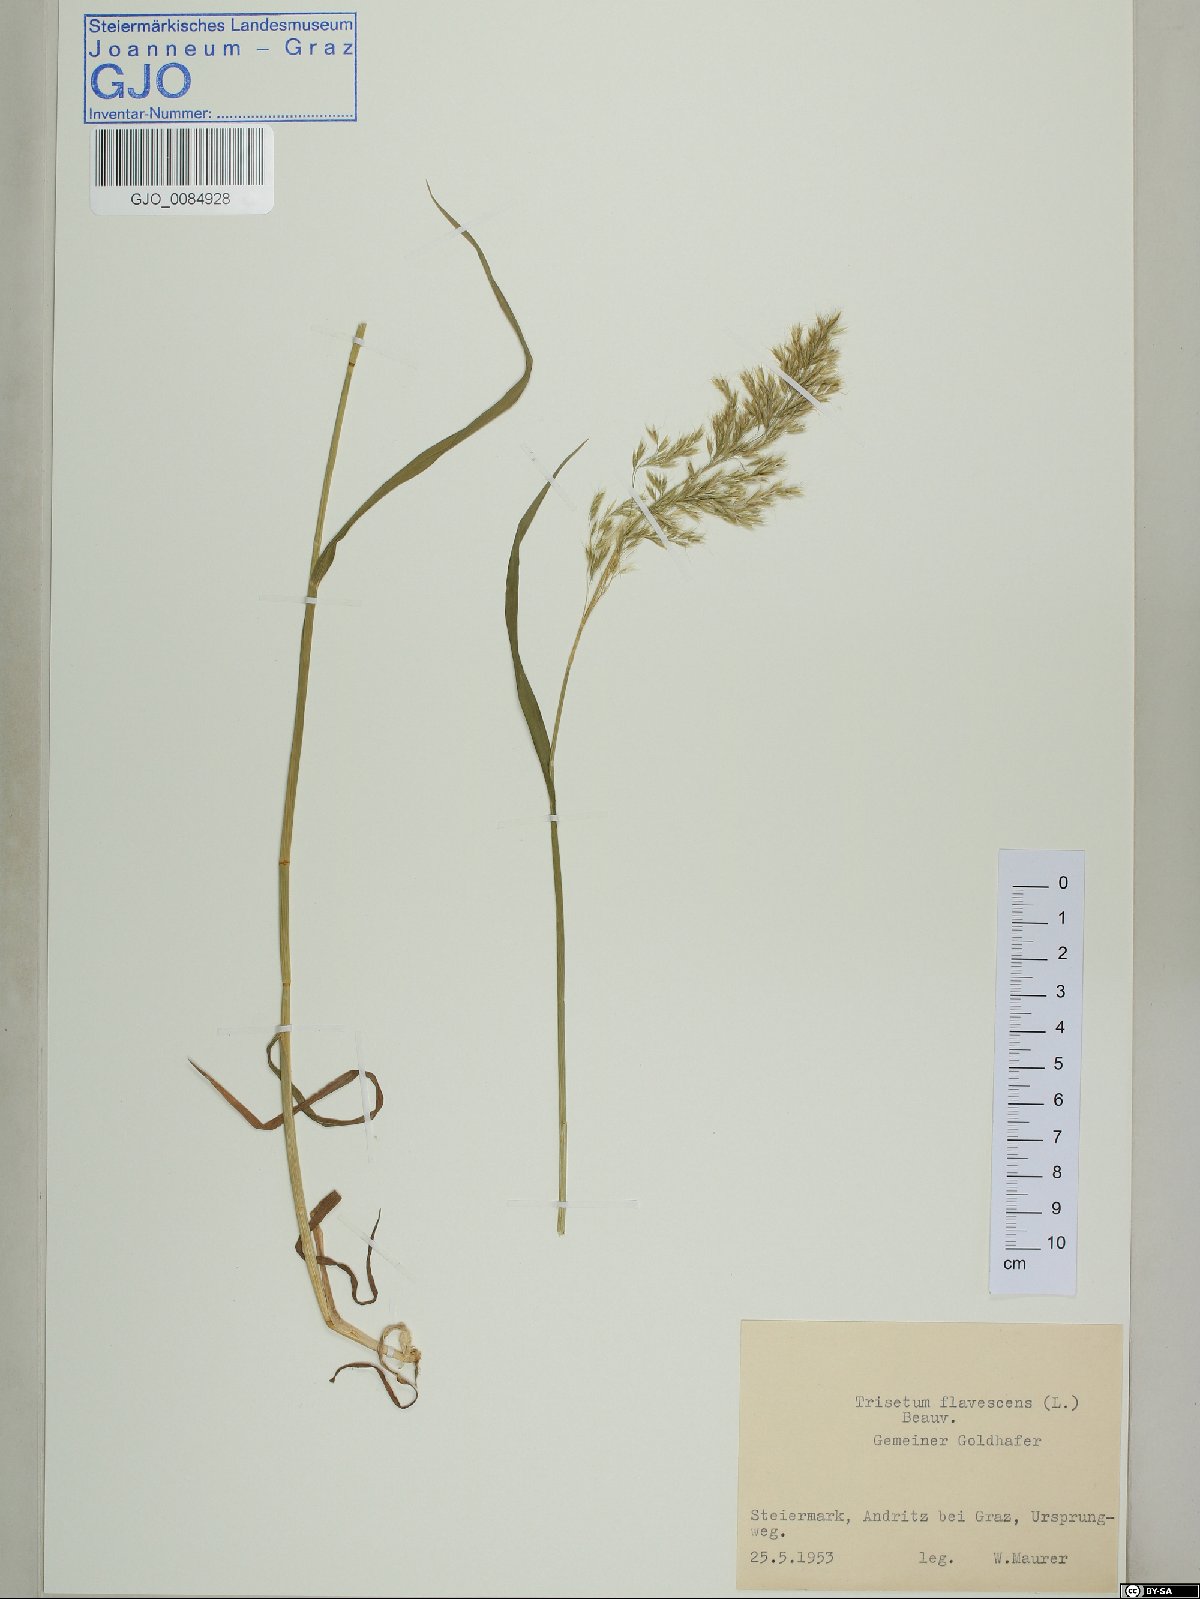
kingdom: Plantae
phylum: Tracheophyta
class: Liliopsida
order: Poales
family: Poaceae
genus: Trisetum
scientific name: Trisetum flavescens
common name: Yellow oat-grass
